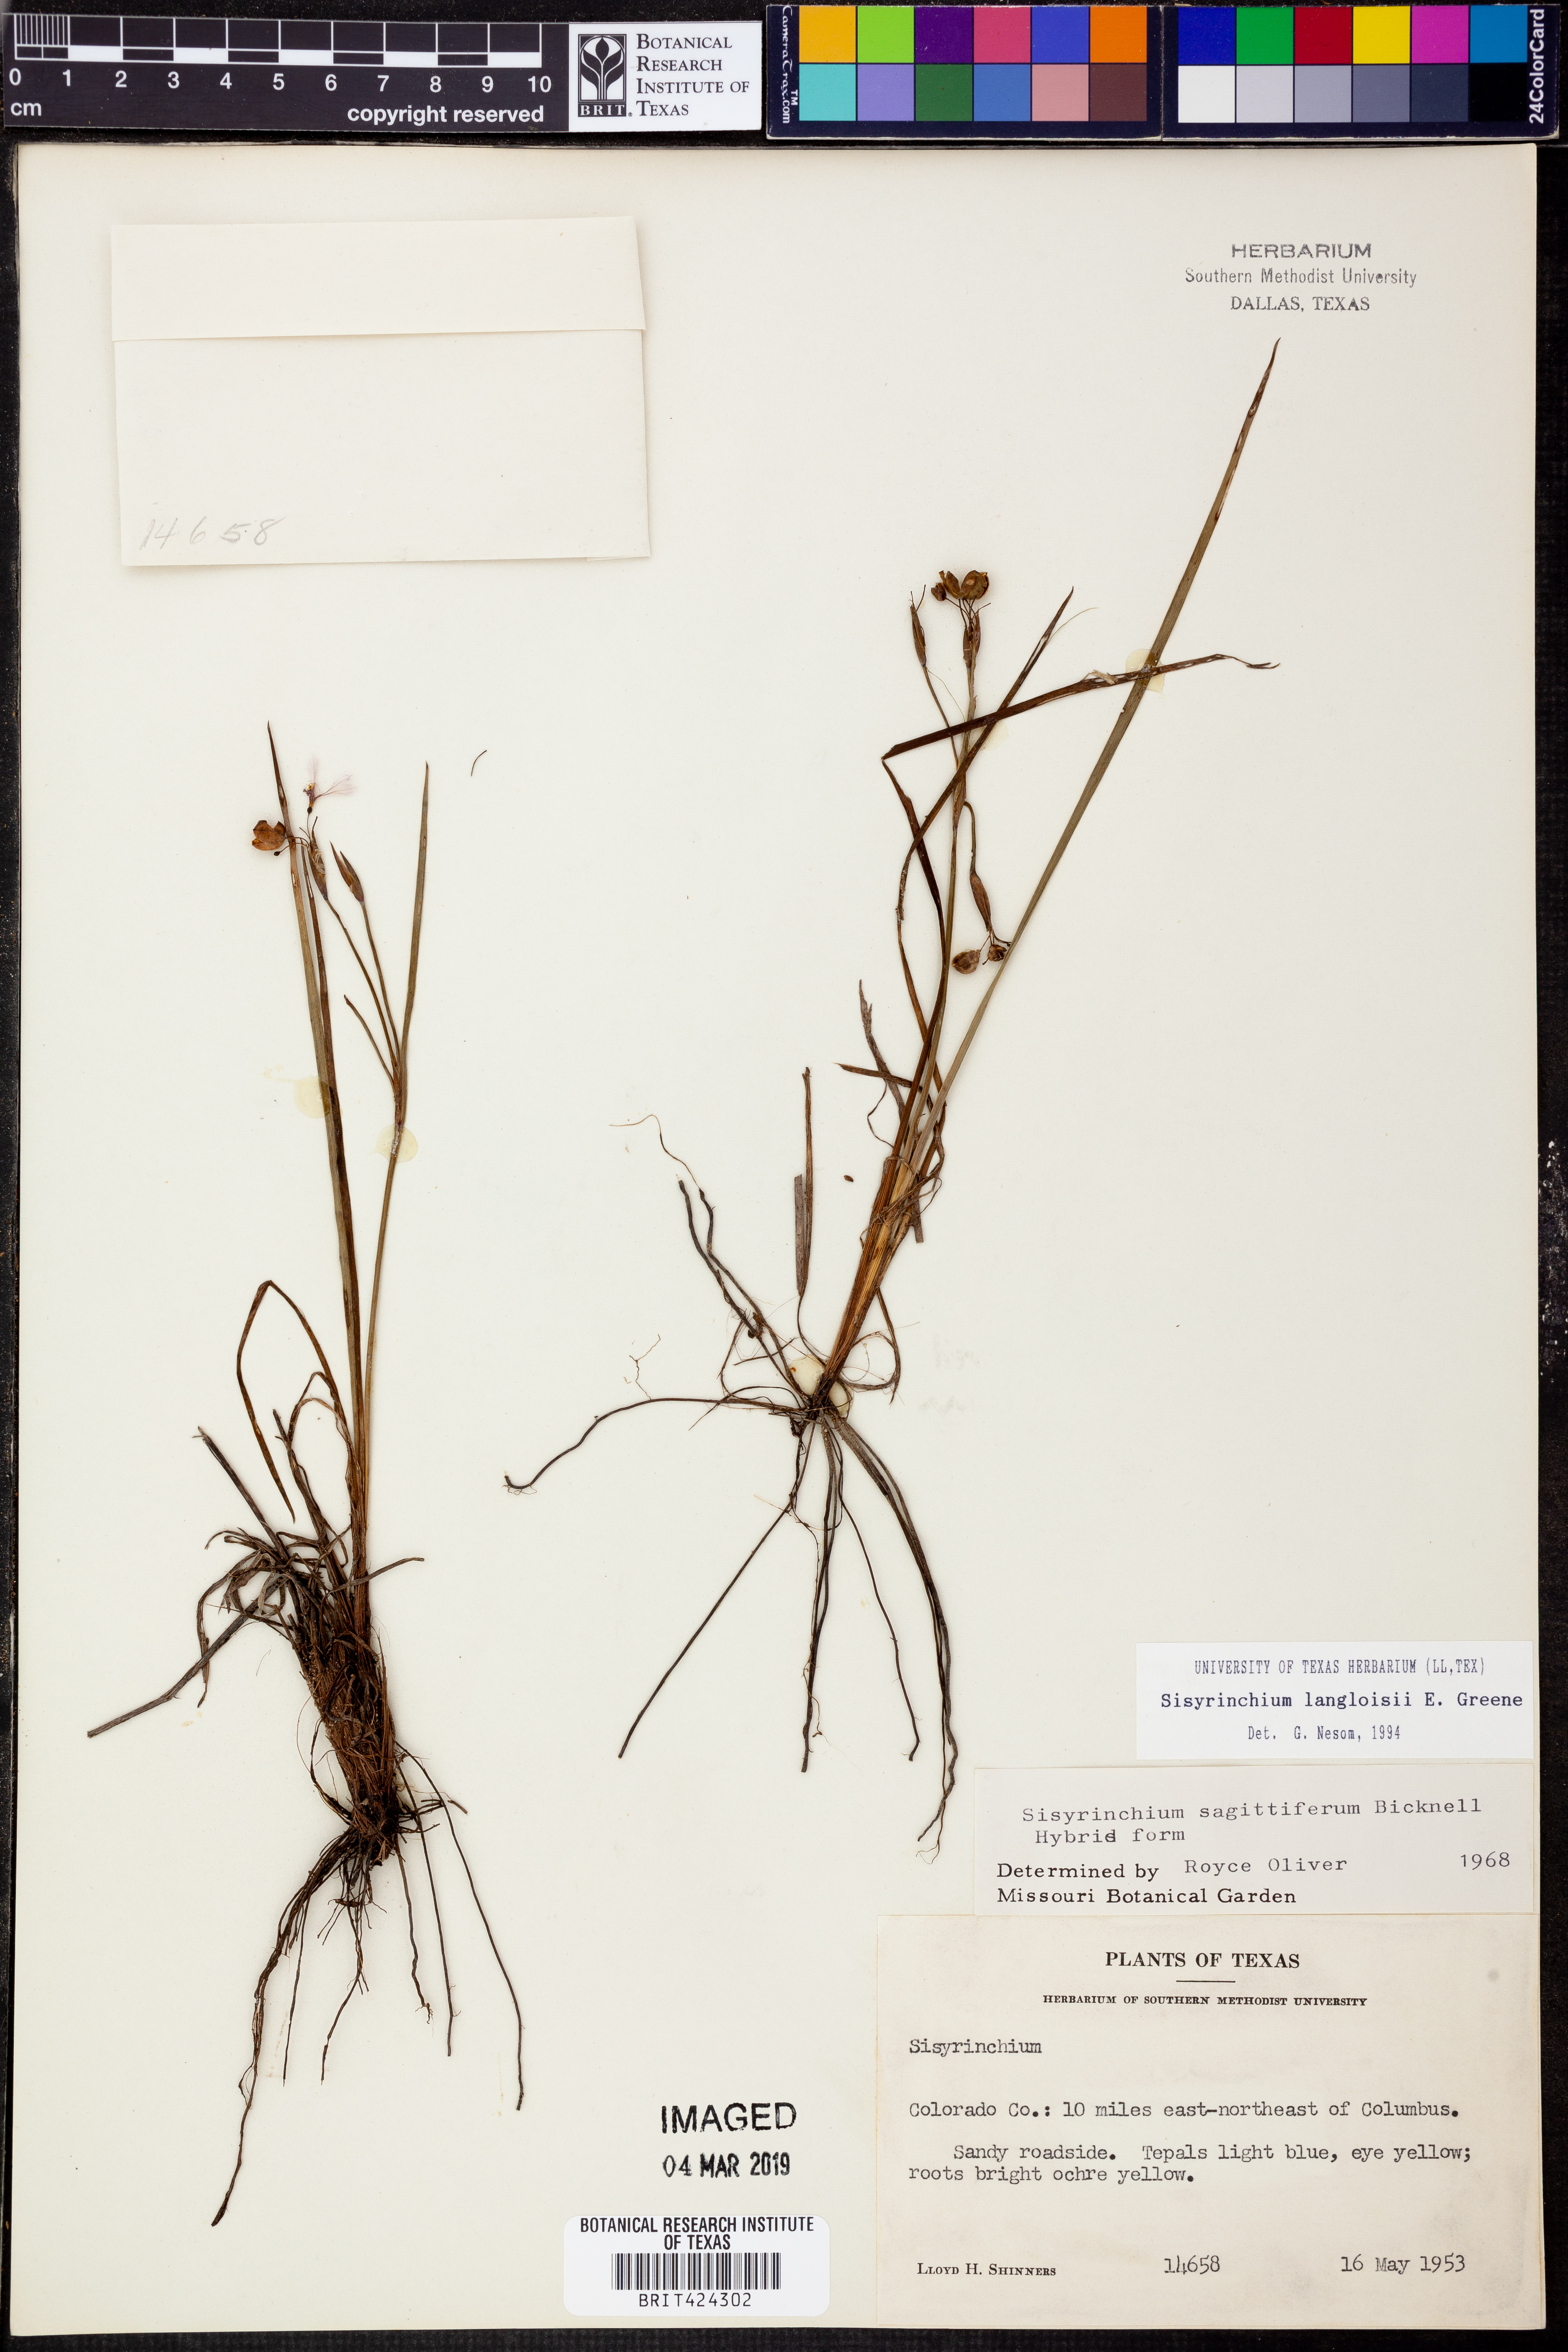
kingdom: Plantae
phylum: Tracheophyta
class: Liliopsida
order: Asparagales
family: Iridaceae
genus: Sisyrinchium
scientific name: Sisyrinchium langloisii
